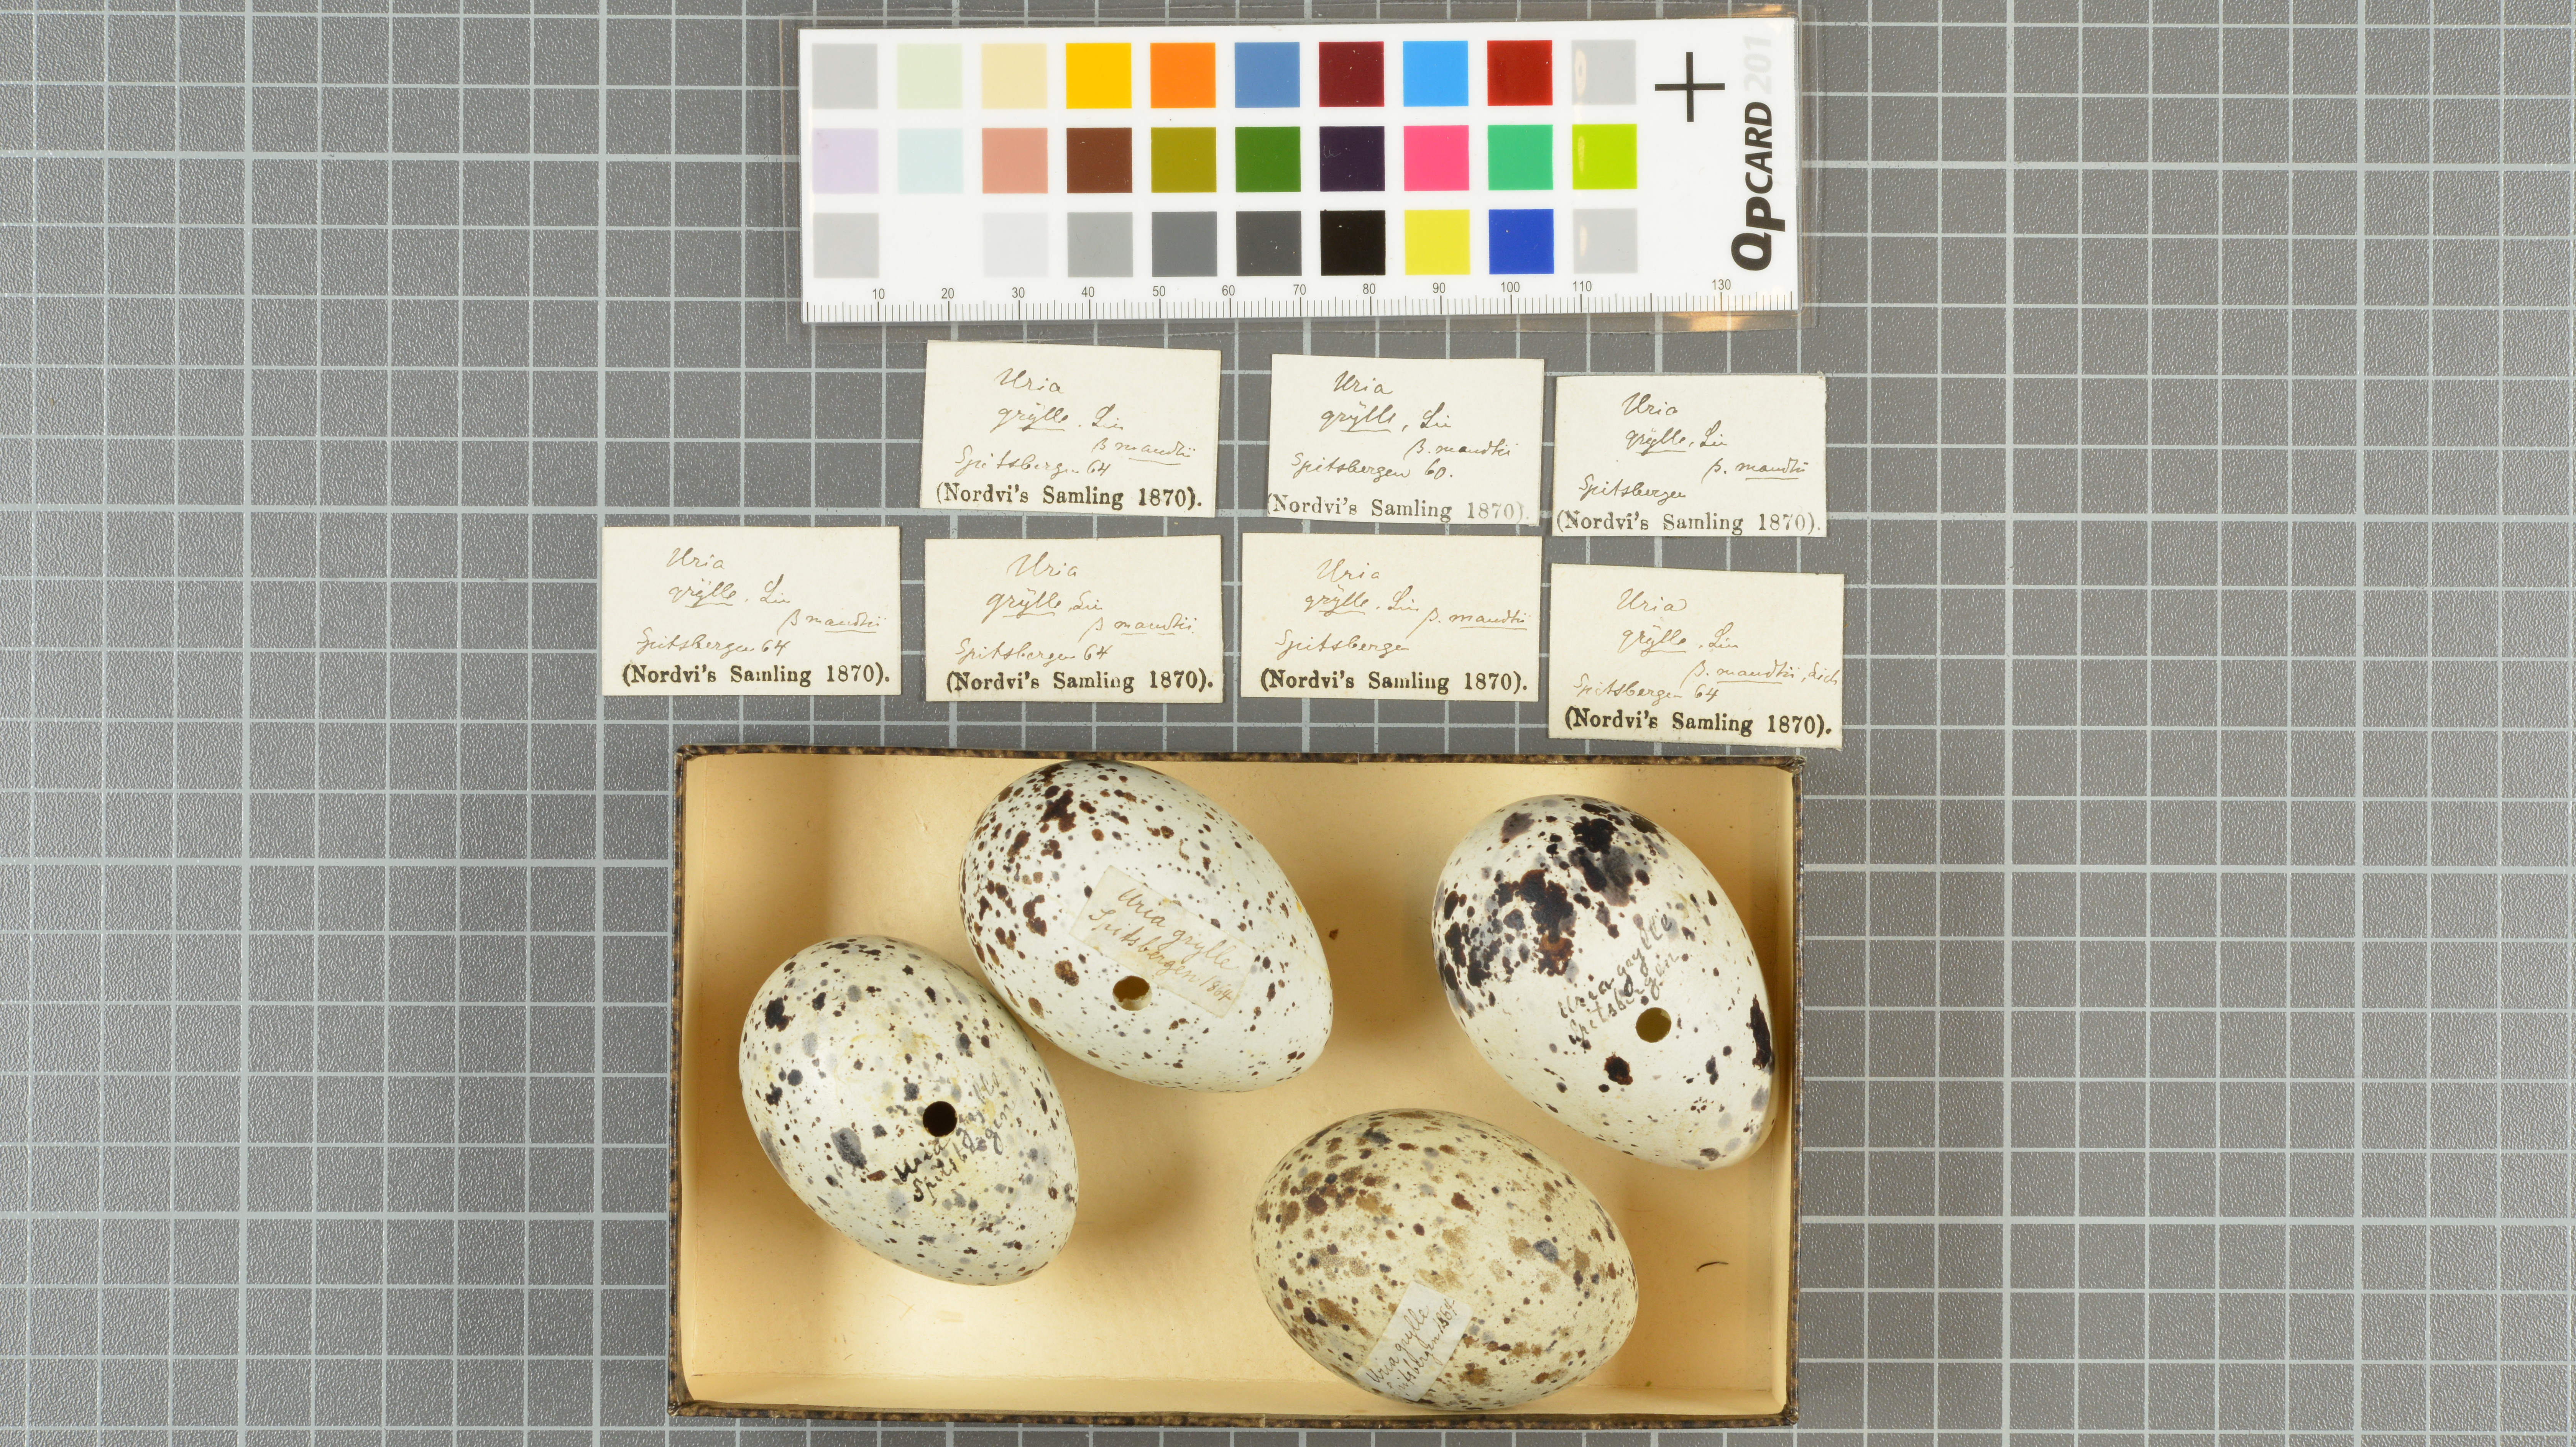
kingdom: Animalia
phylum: Chordata
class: Aves
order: Charadriiformes
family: Alcidae
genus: Cepphus
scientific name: Cepphus grylle
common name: Black guillemot
